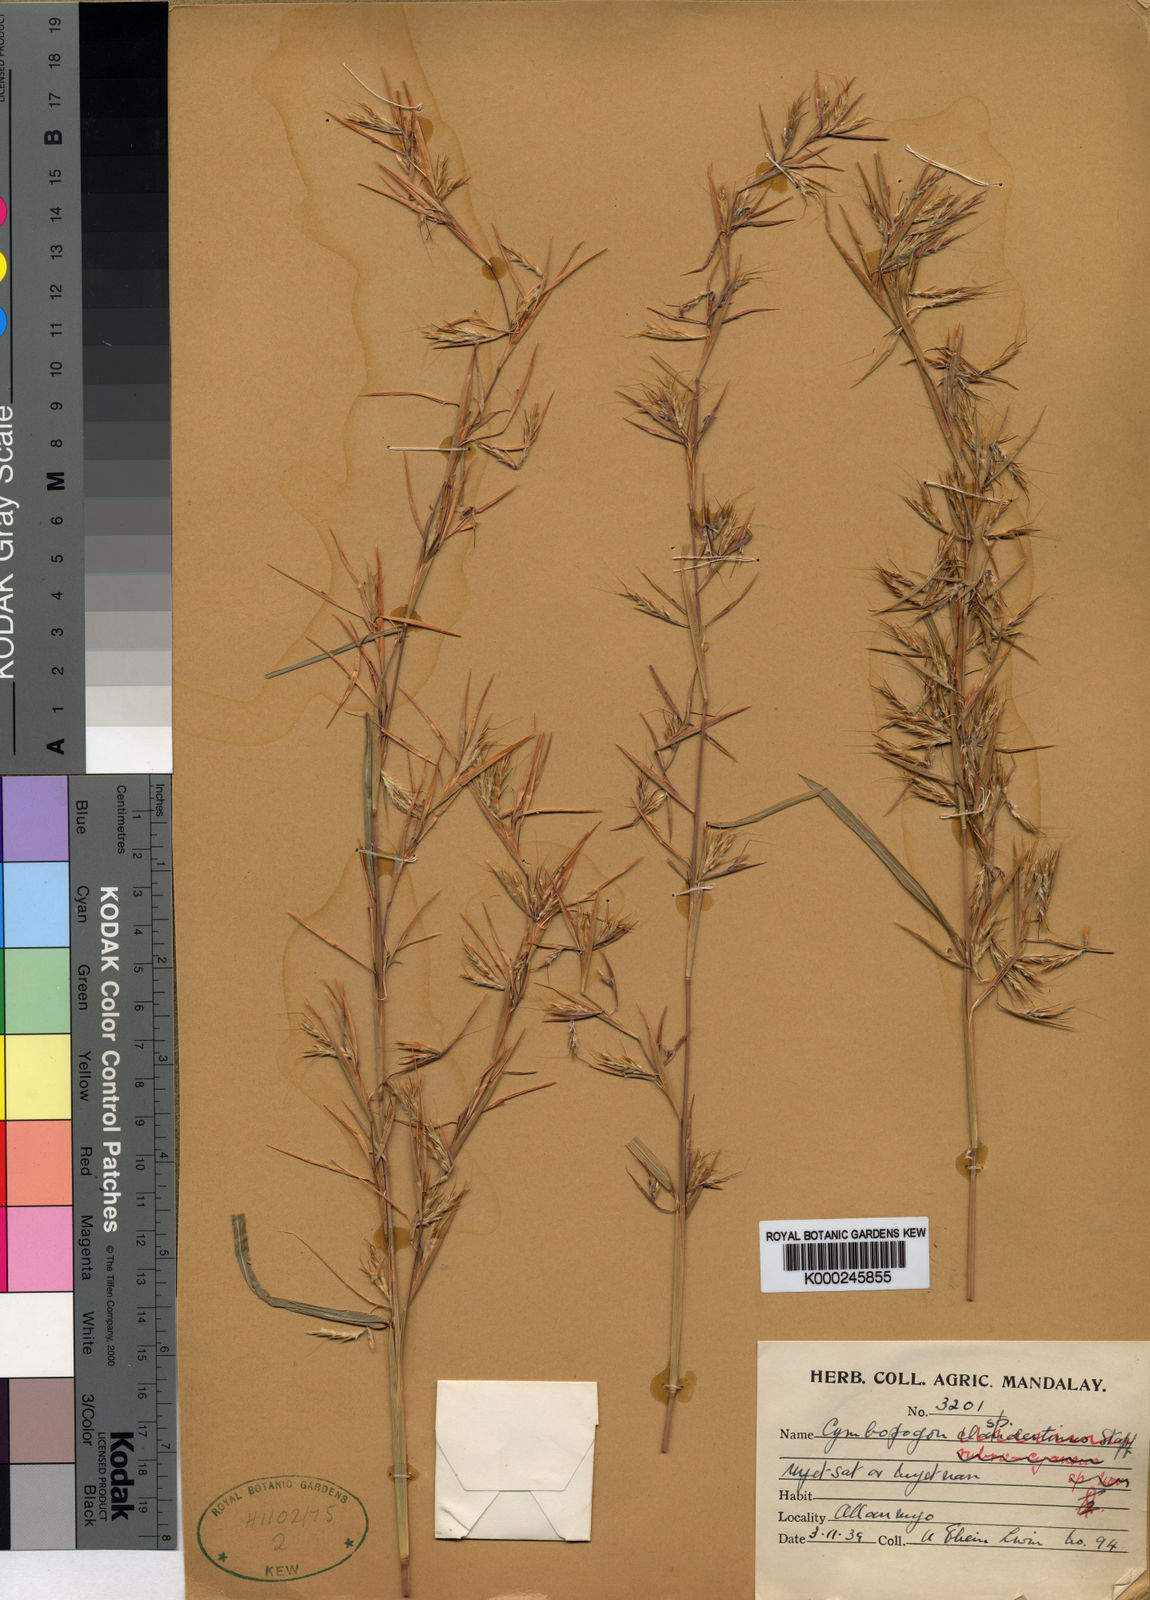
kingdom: Plantae
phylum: Tracheophyta
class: Liliopsida
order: Poales
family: Poaceae
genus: Cymbopogon
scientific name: Cymbopogon mandalaiaensis
